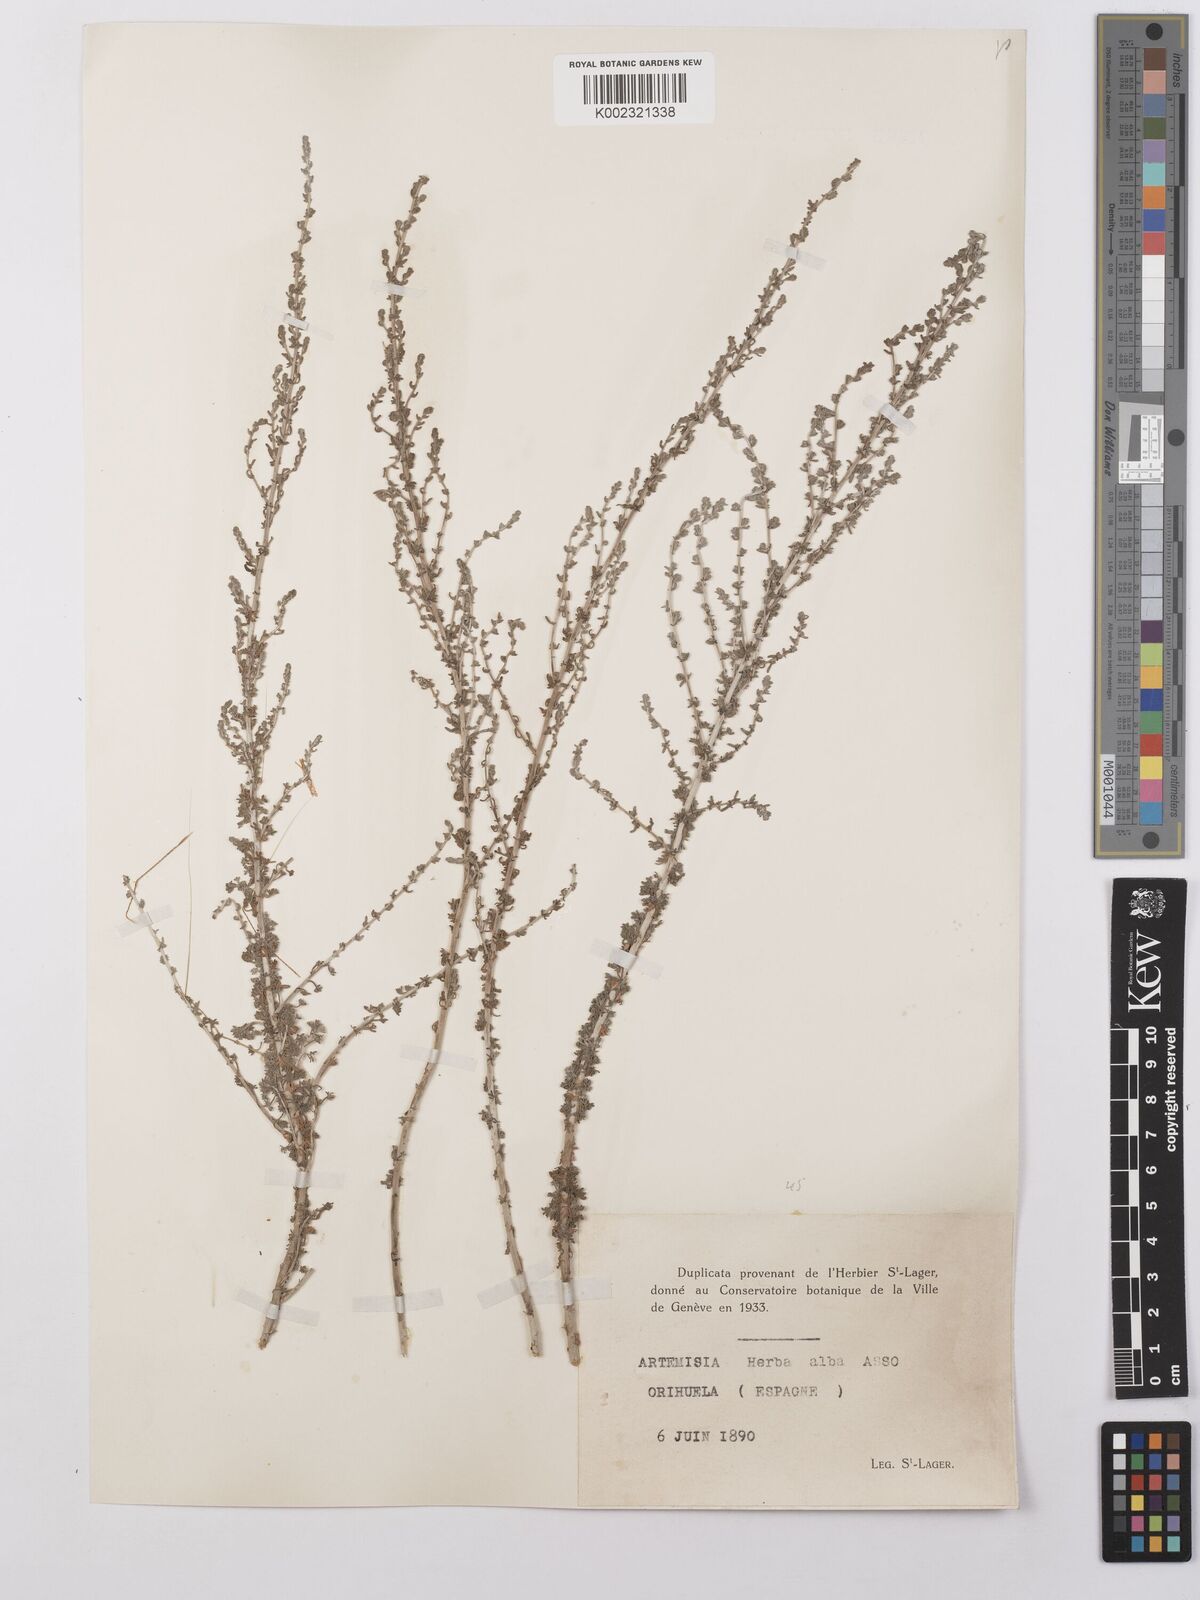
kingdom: Plantae
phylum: Tracheophyta
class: Magnoliopsida
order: Asterales
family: Asteraceae
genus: Artemisia
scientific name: Artemisia herba-alba
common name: White wormwood
